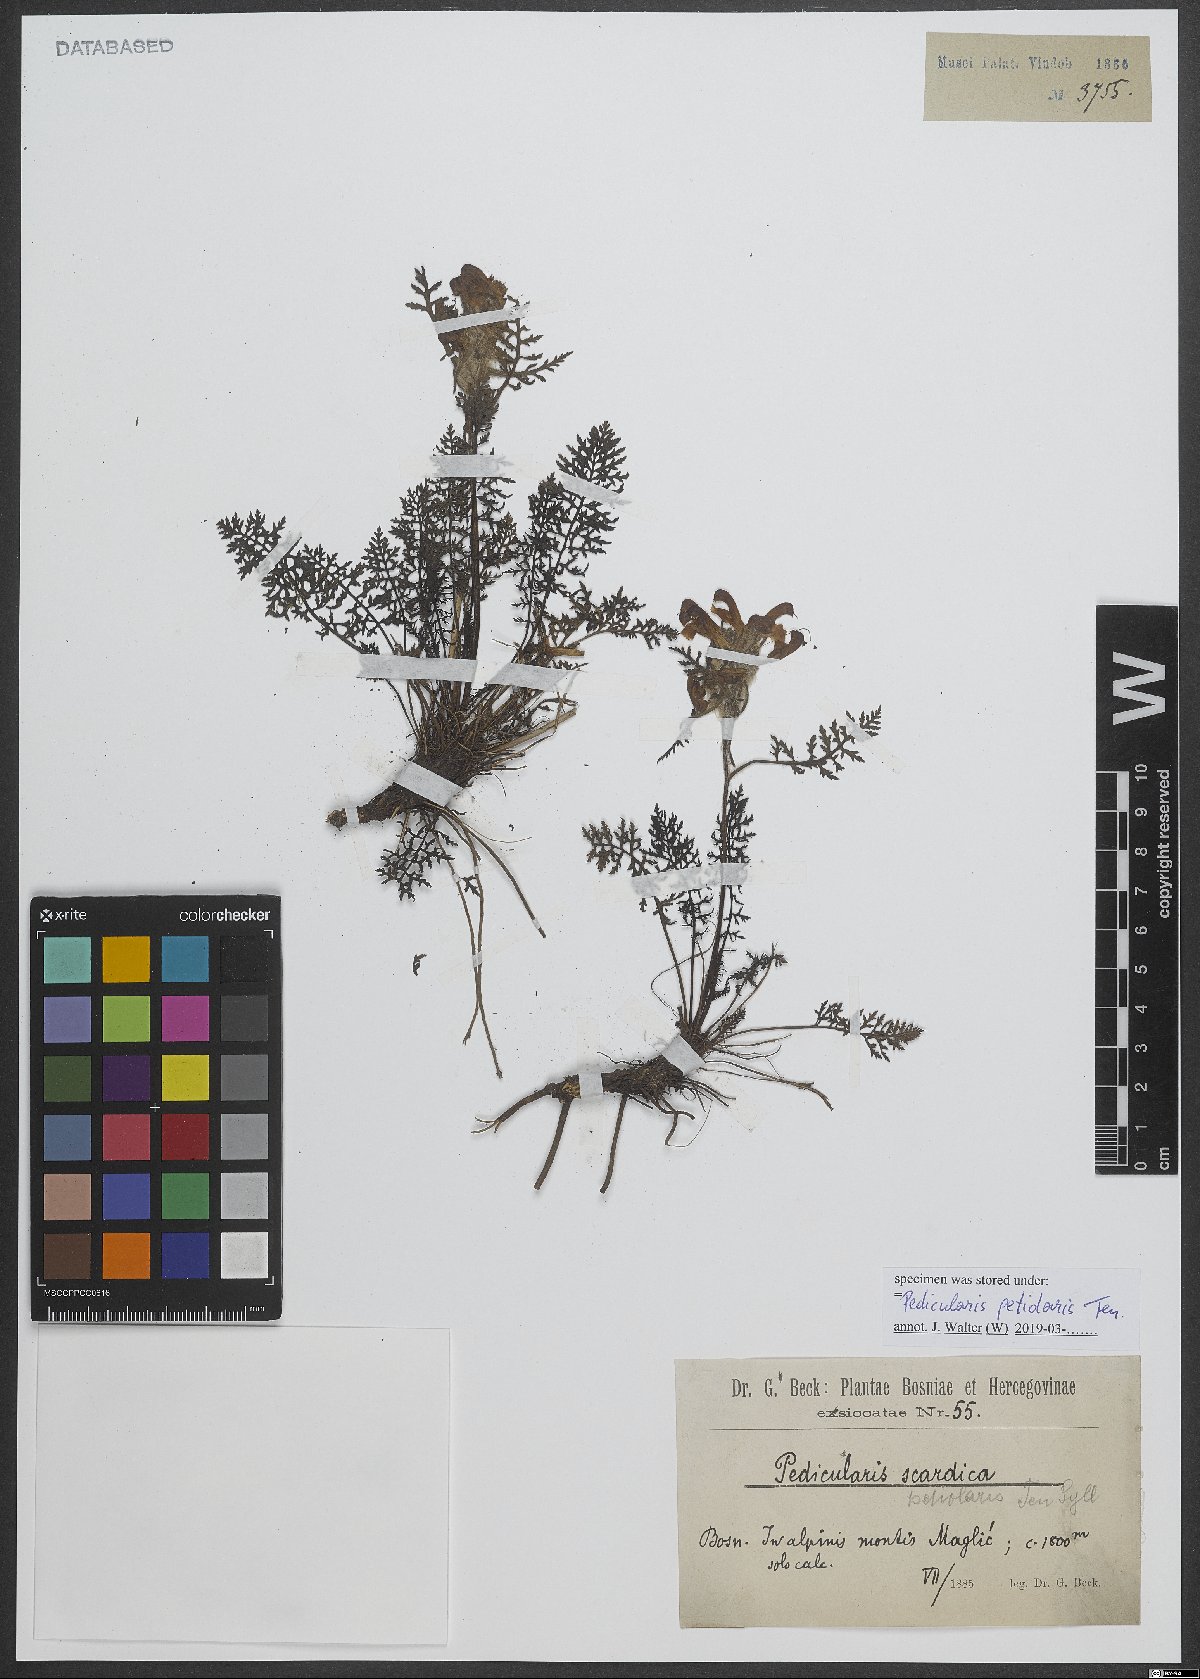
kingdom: Plantae
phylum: Tracheophyta
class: Magnoliopsida
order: Lamiales
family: Orobanchaceae
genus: Pedicularis
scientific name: Pedicularis petiolaris
